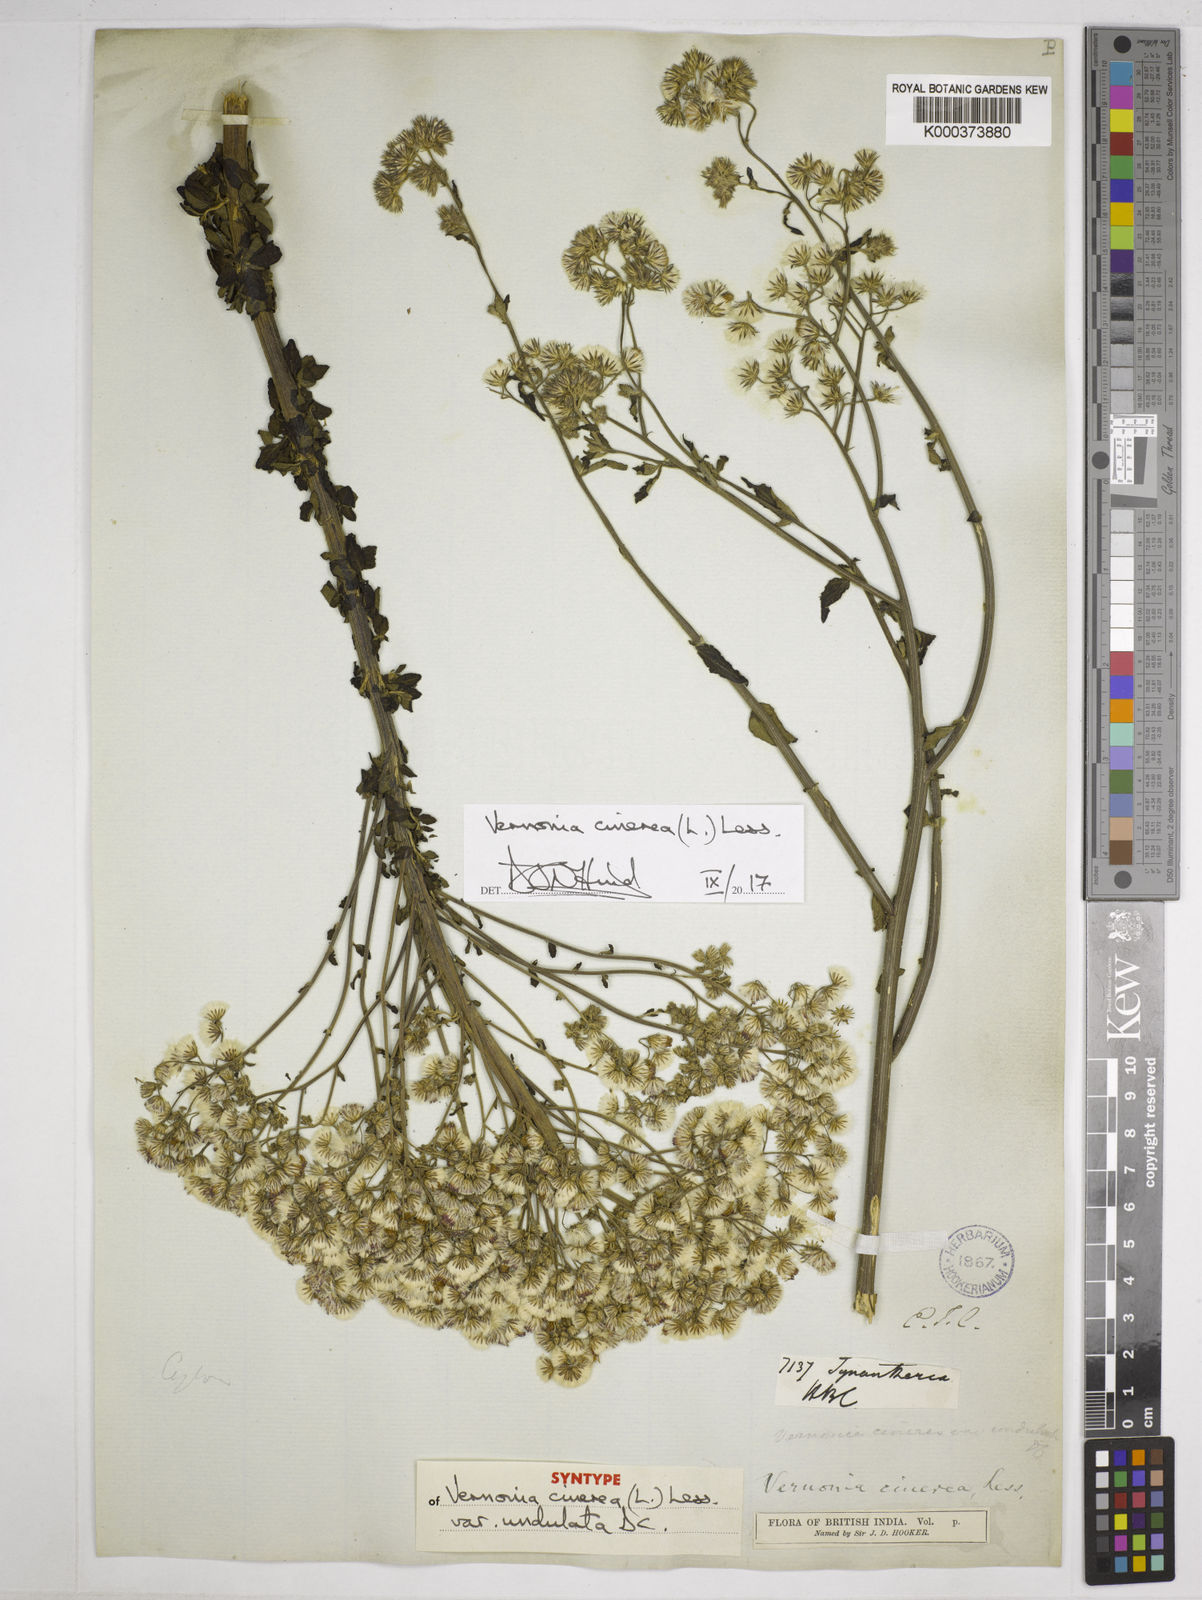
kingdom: Plantae
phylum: Tracheophyta
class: Magnoliopsida
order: Asterales
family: Asteraceae
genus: Cyanthillium
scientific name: Cyanthillium cinereum
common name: Little ironweed
